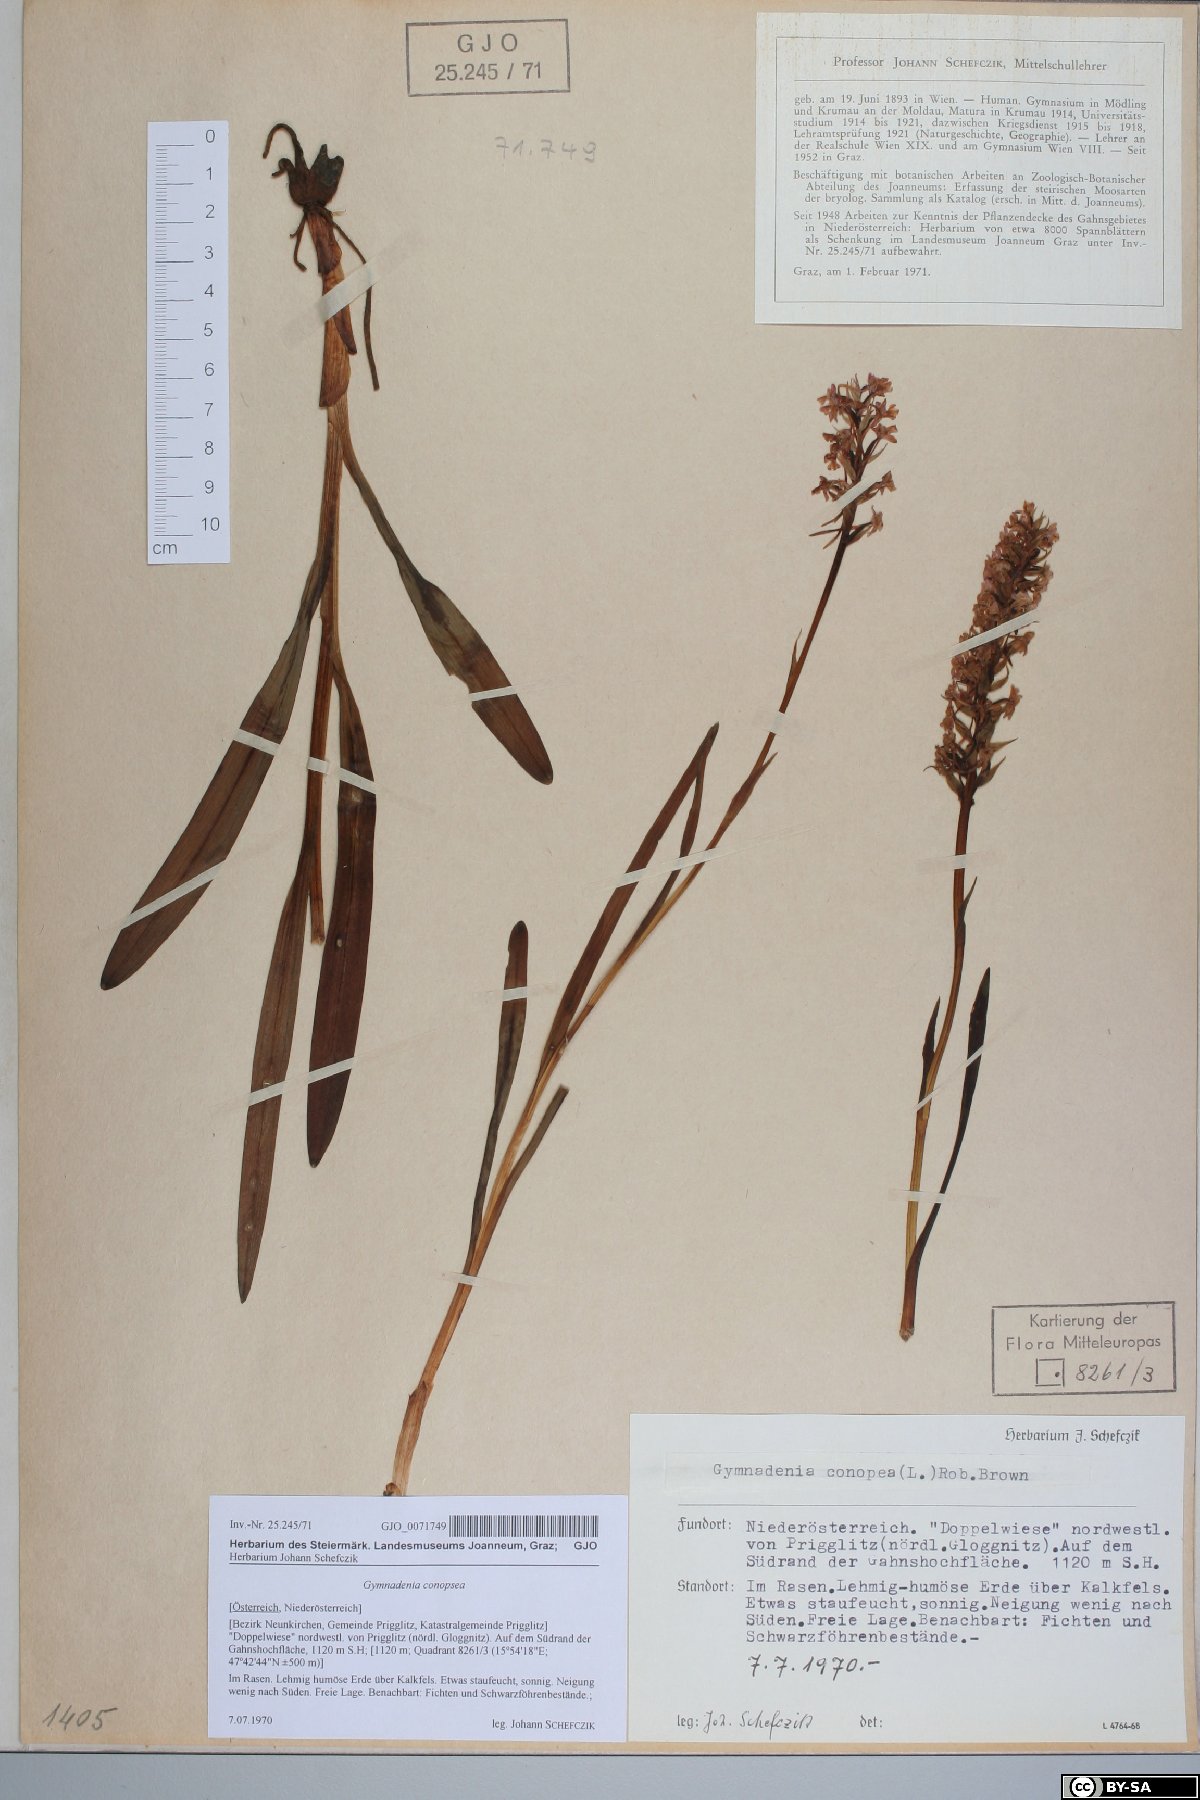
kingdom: Plantae
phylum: Tracheophyta
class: Liliopsida
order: Asparagales
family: Orchidaceae
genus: Gymnadenia
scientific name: Gymnadenia conopsea
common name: Fragrant orchid
